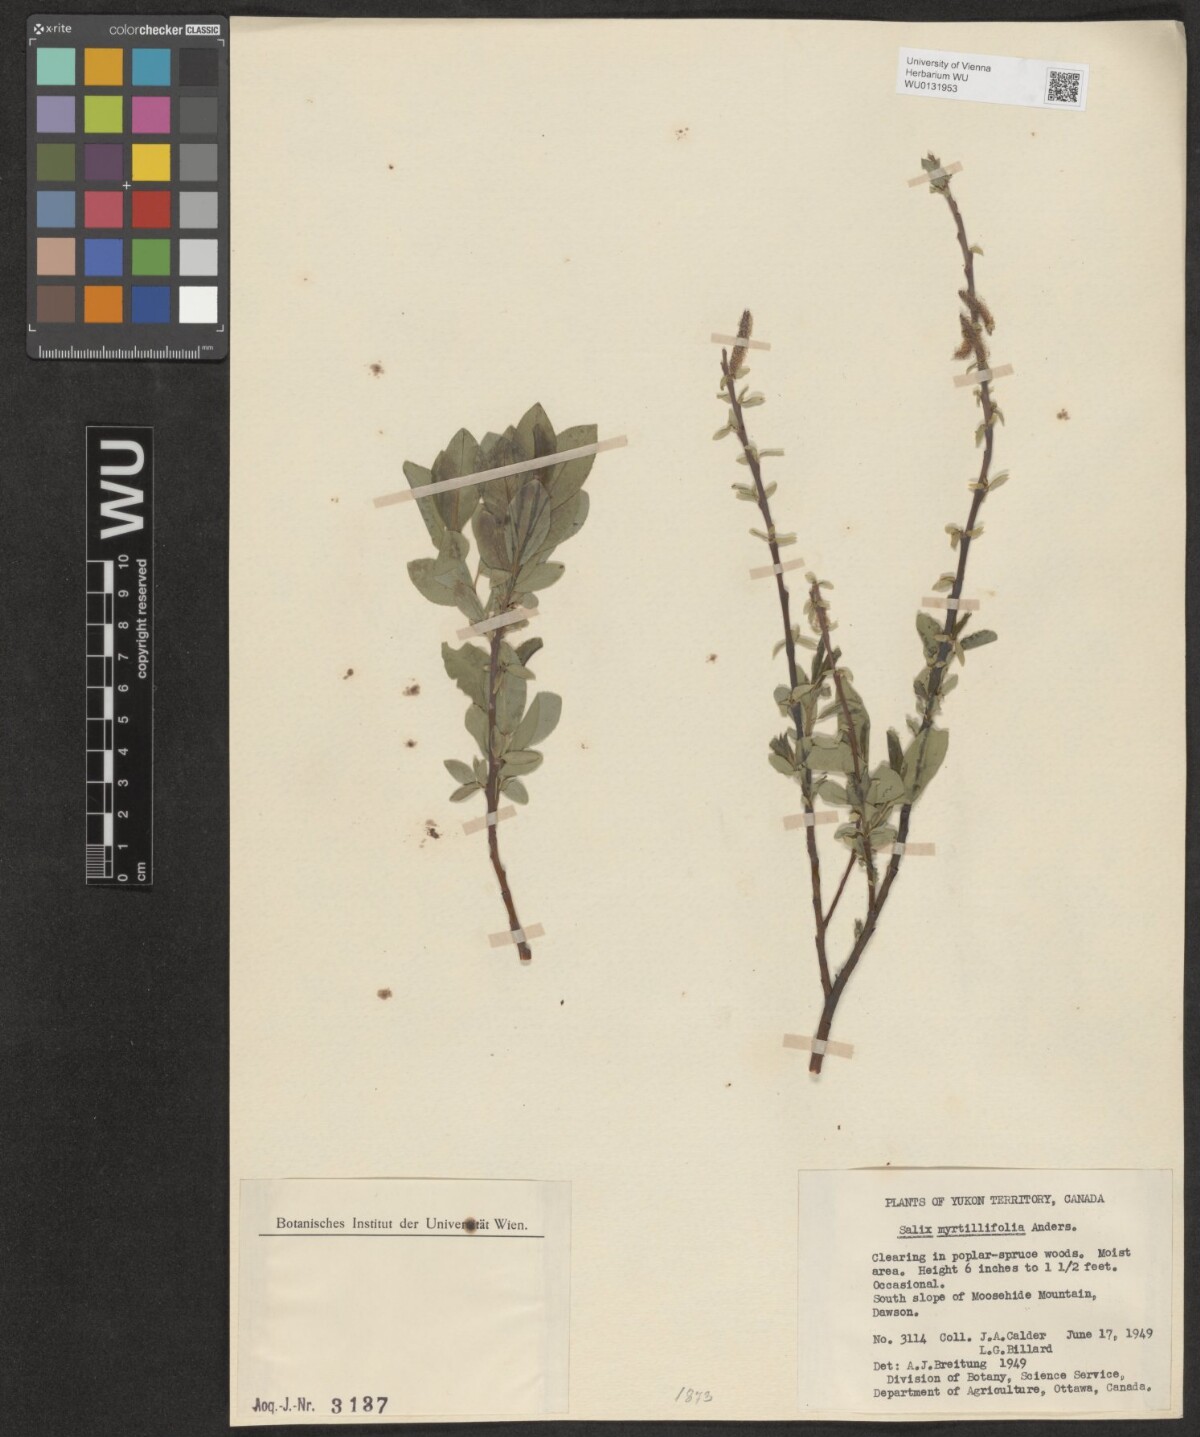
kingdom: Plantae
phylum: Tracheophyta
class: Magnoliopsida
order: Malpighiales
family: Salicaceae
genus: Salix
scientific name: Salix myrtillifolia
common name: Bilberry willow
